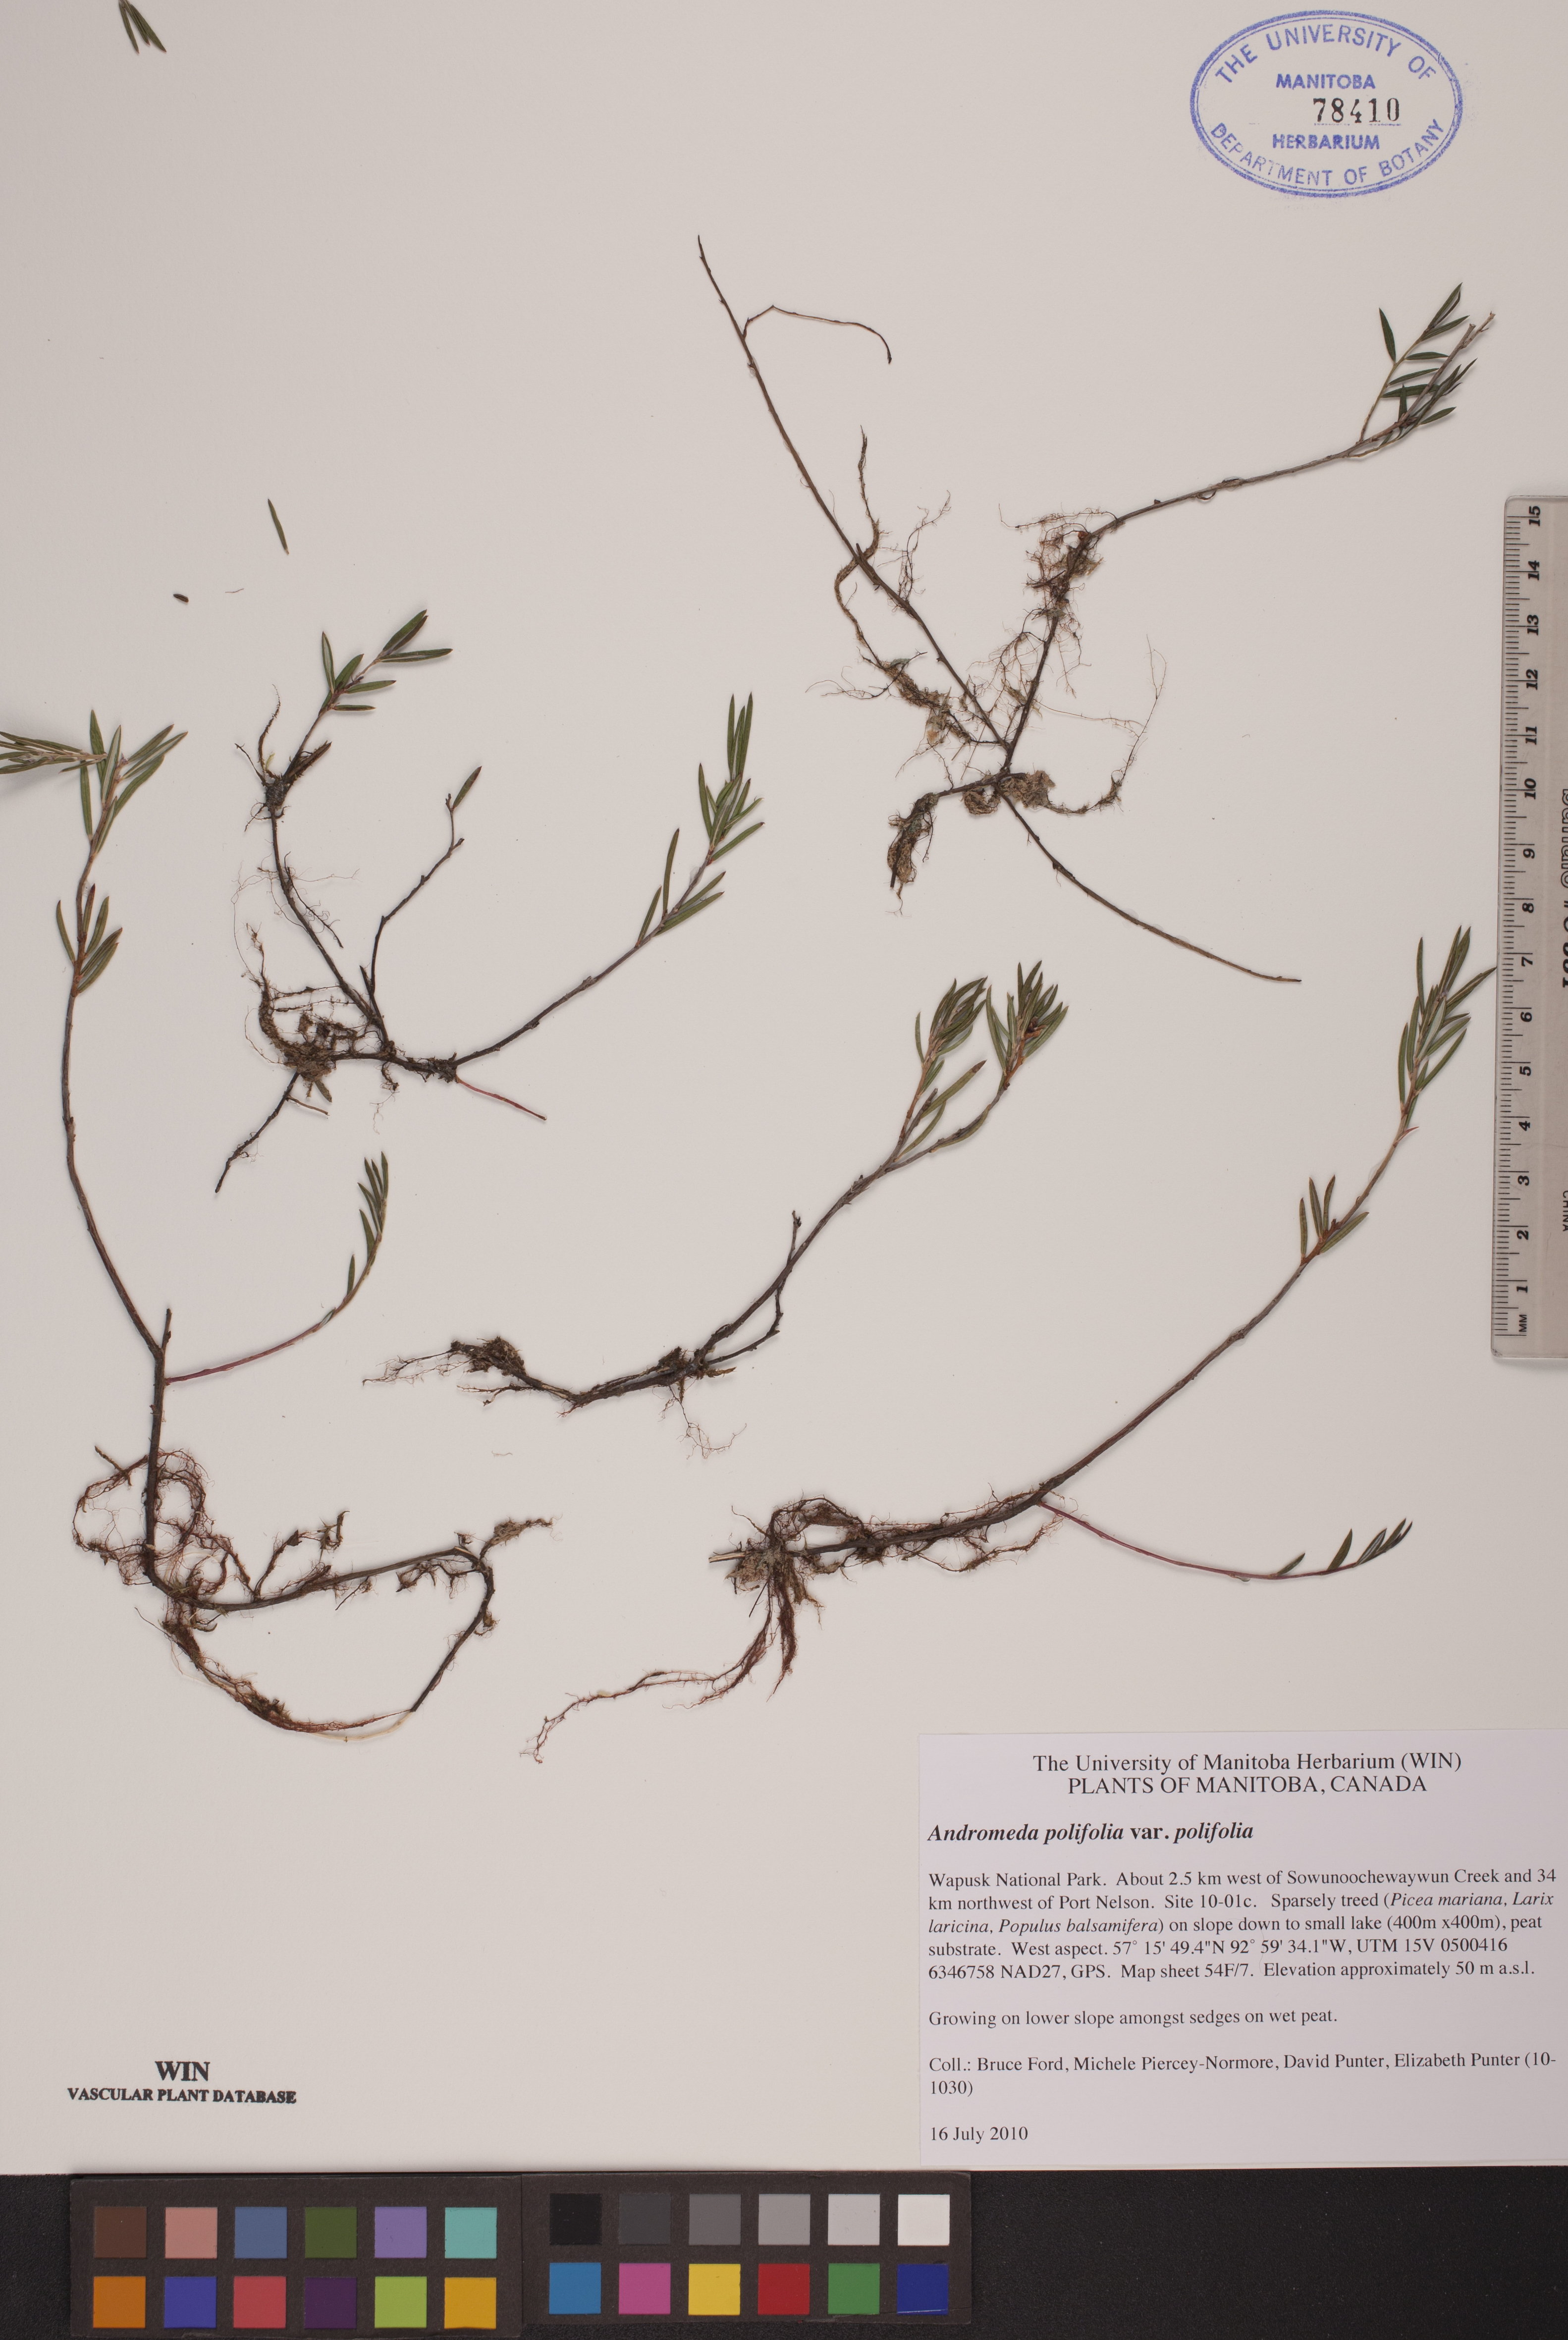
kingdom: Plantae
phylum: Tracheophyta
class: Magnoliopsida
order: Ericales
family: Ericaceae
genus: Andromeda
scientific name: Andromeda polifolia
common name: Bog-rosemary
